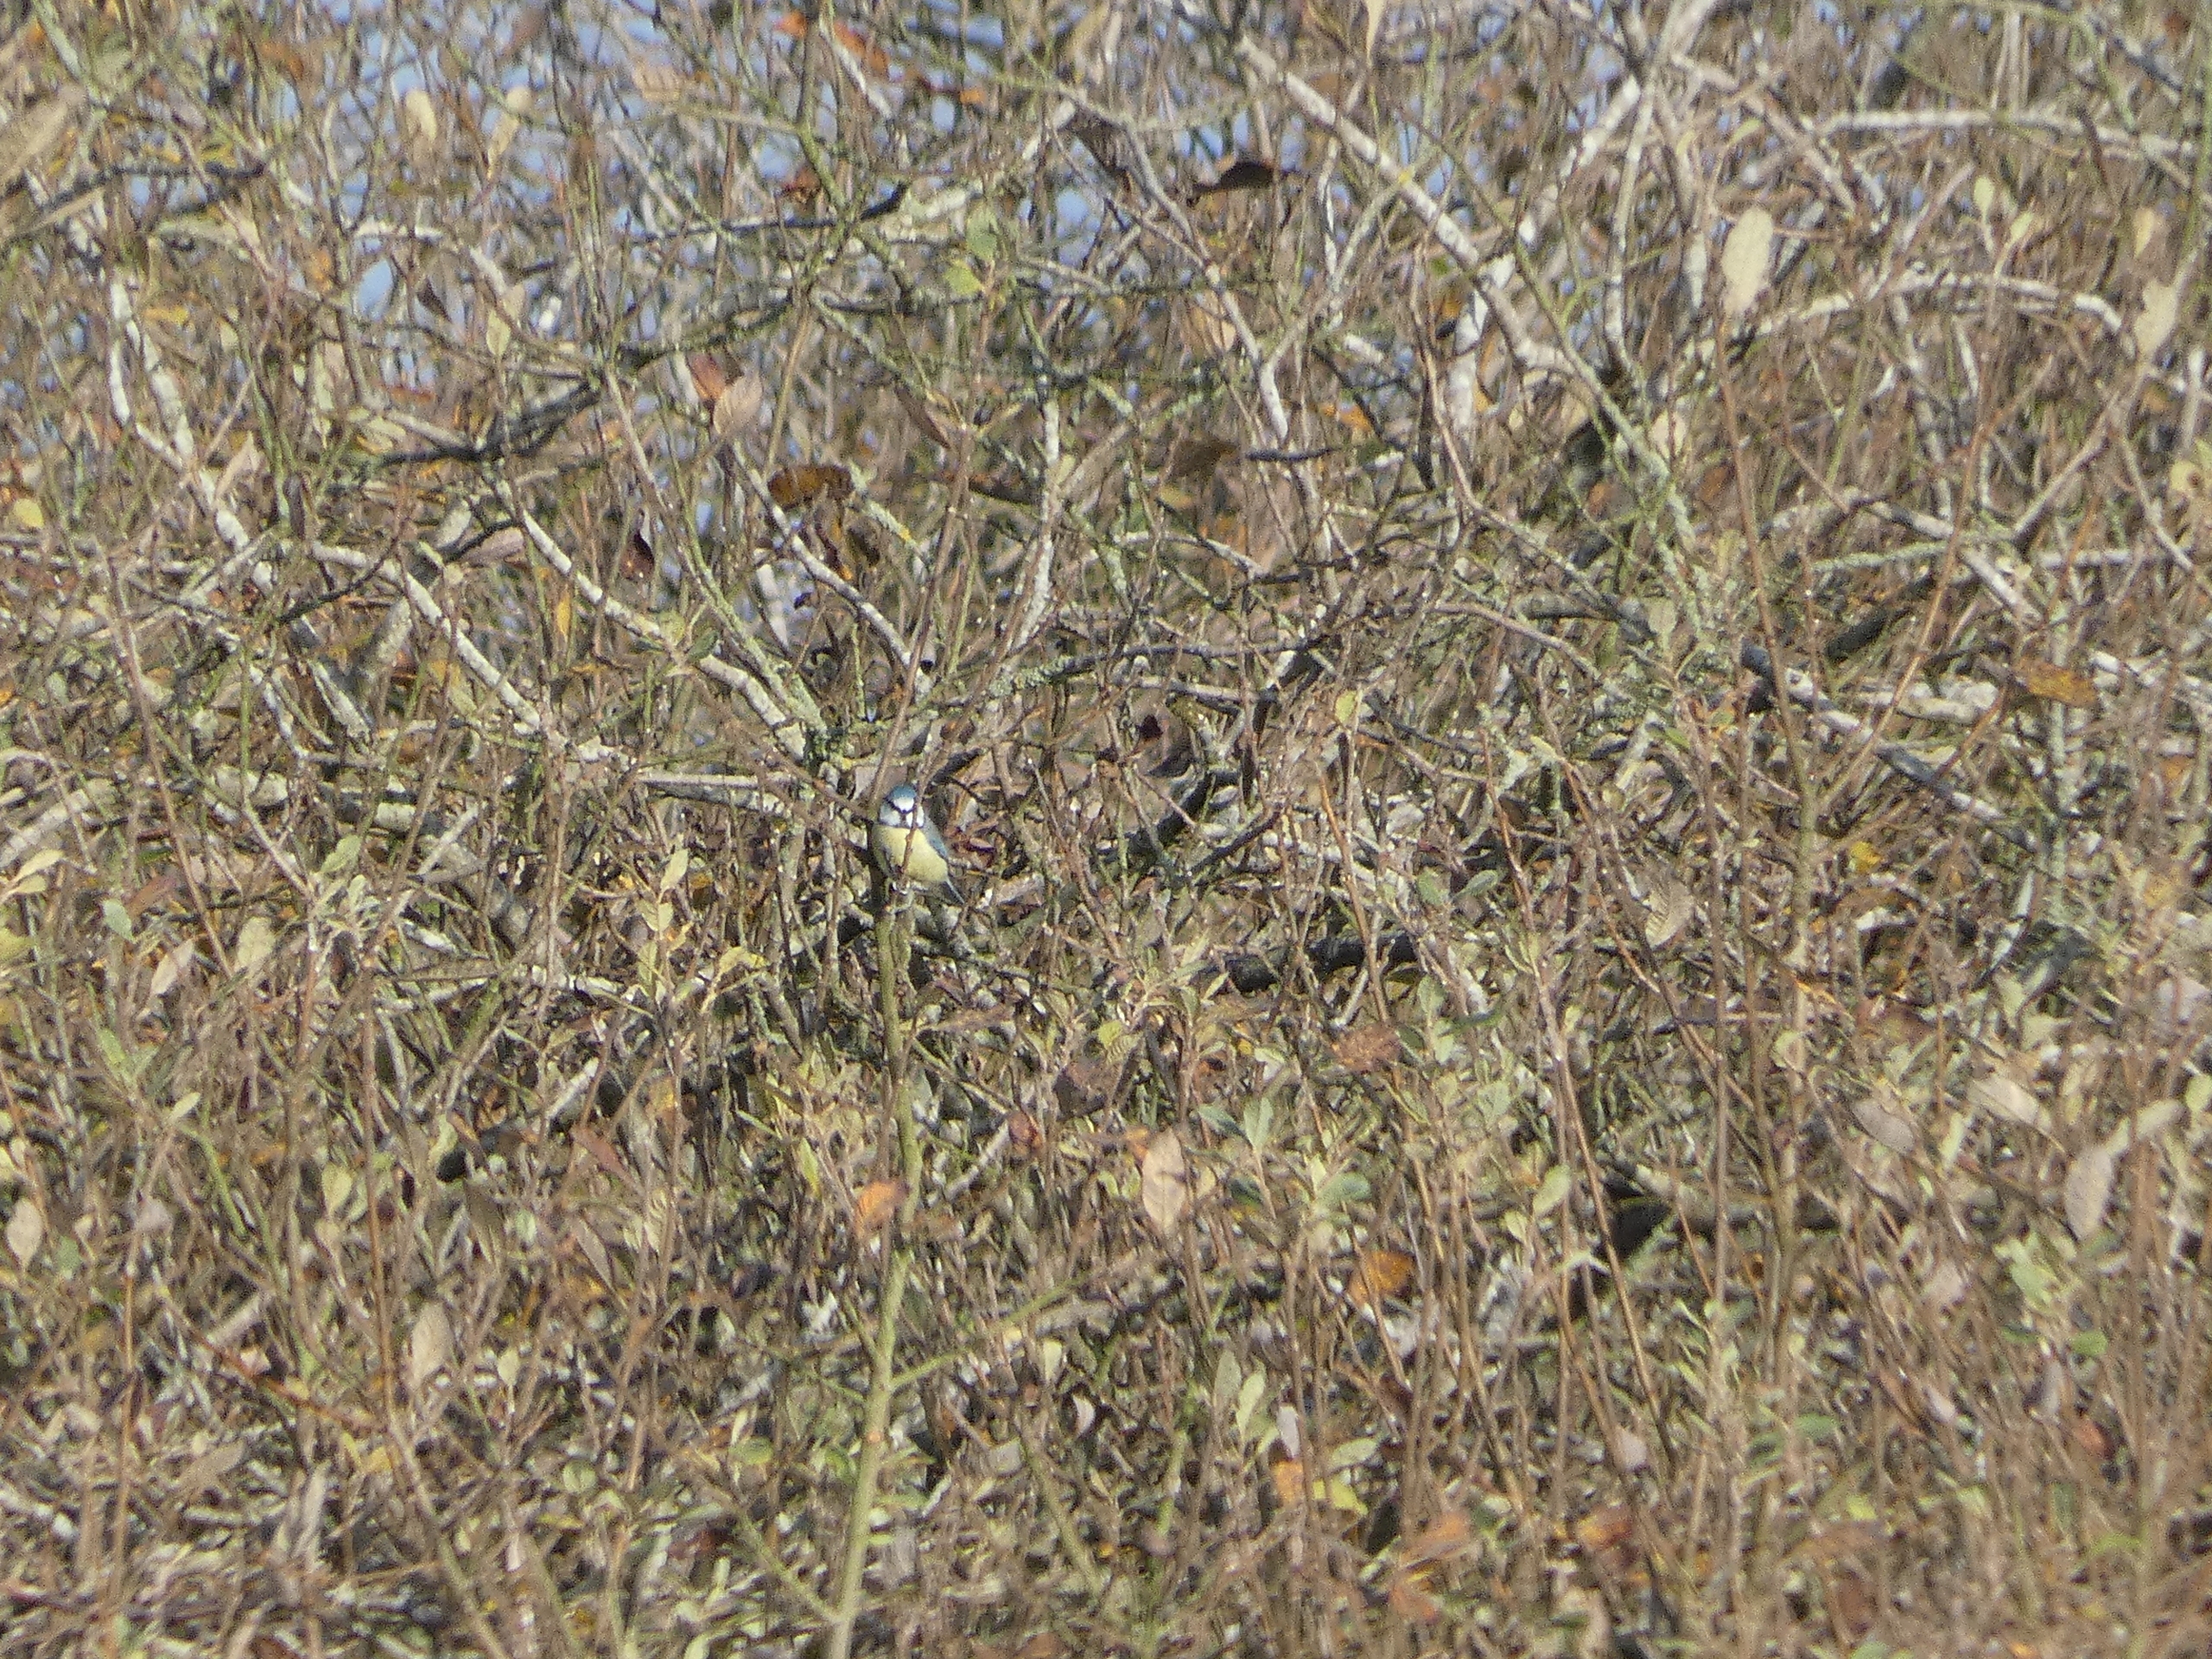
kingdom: Animalia
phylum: Chordata
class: Aves
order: Passeriformes
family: Paridae
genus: Cyanistes
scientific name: Cyanistes caeruleus
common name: Blåmejse
